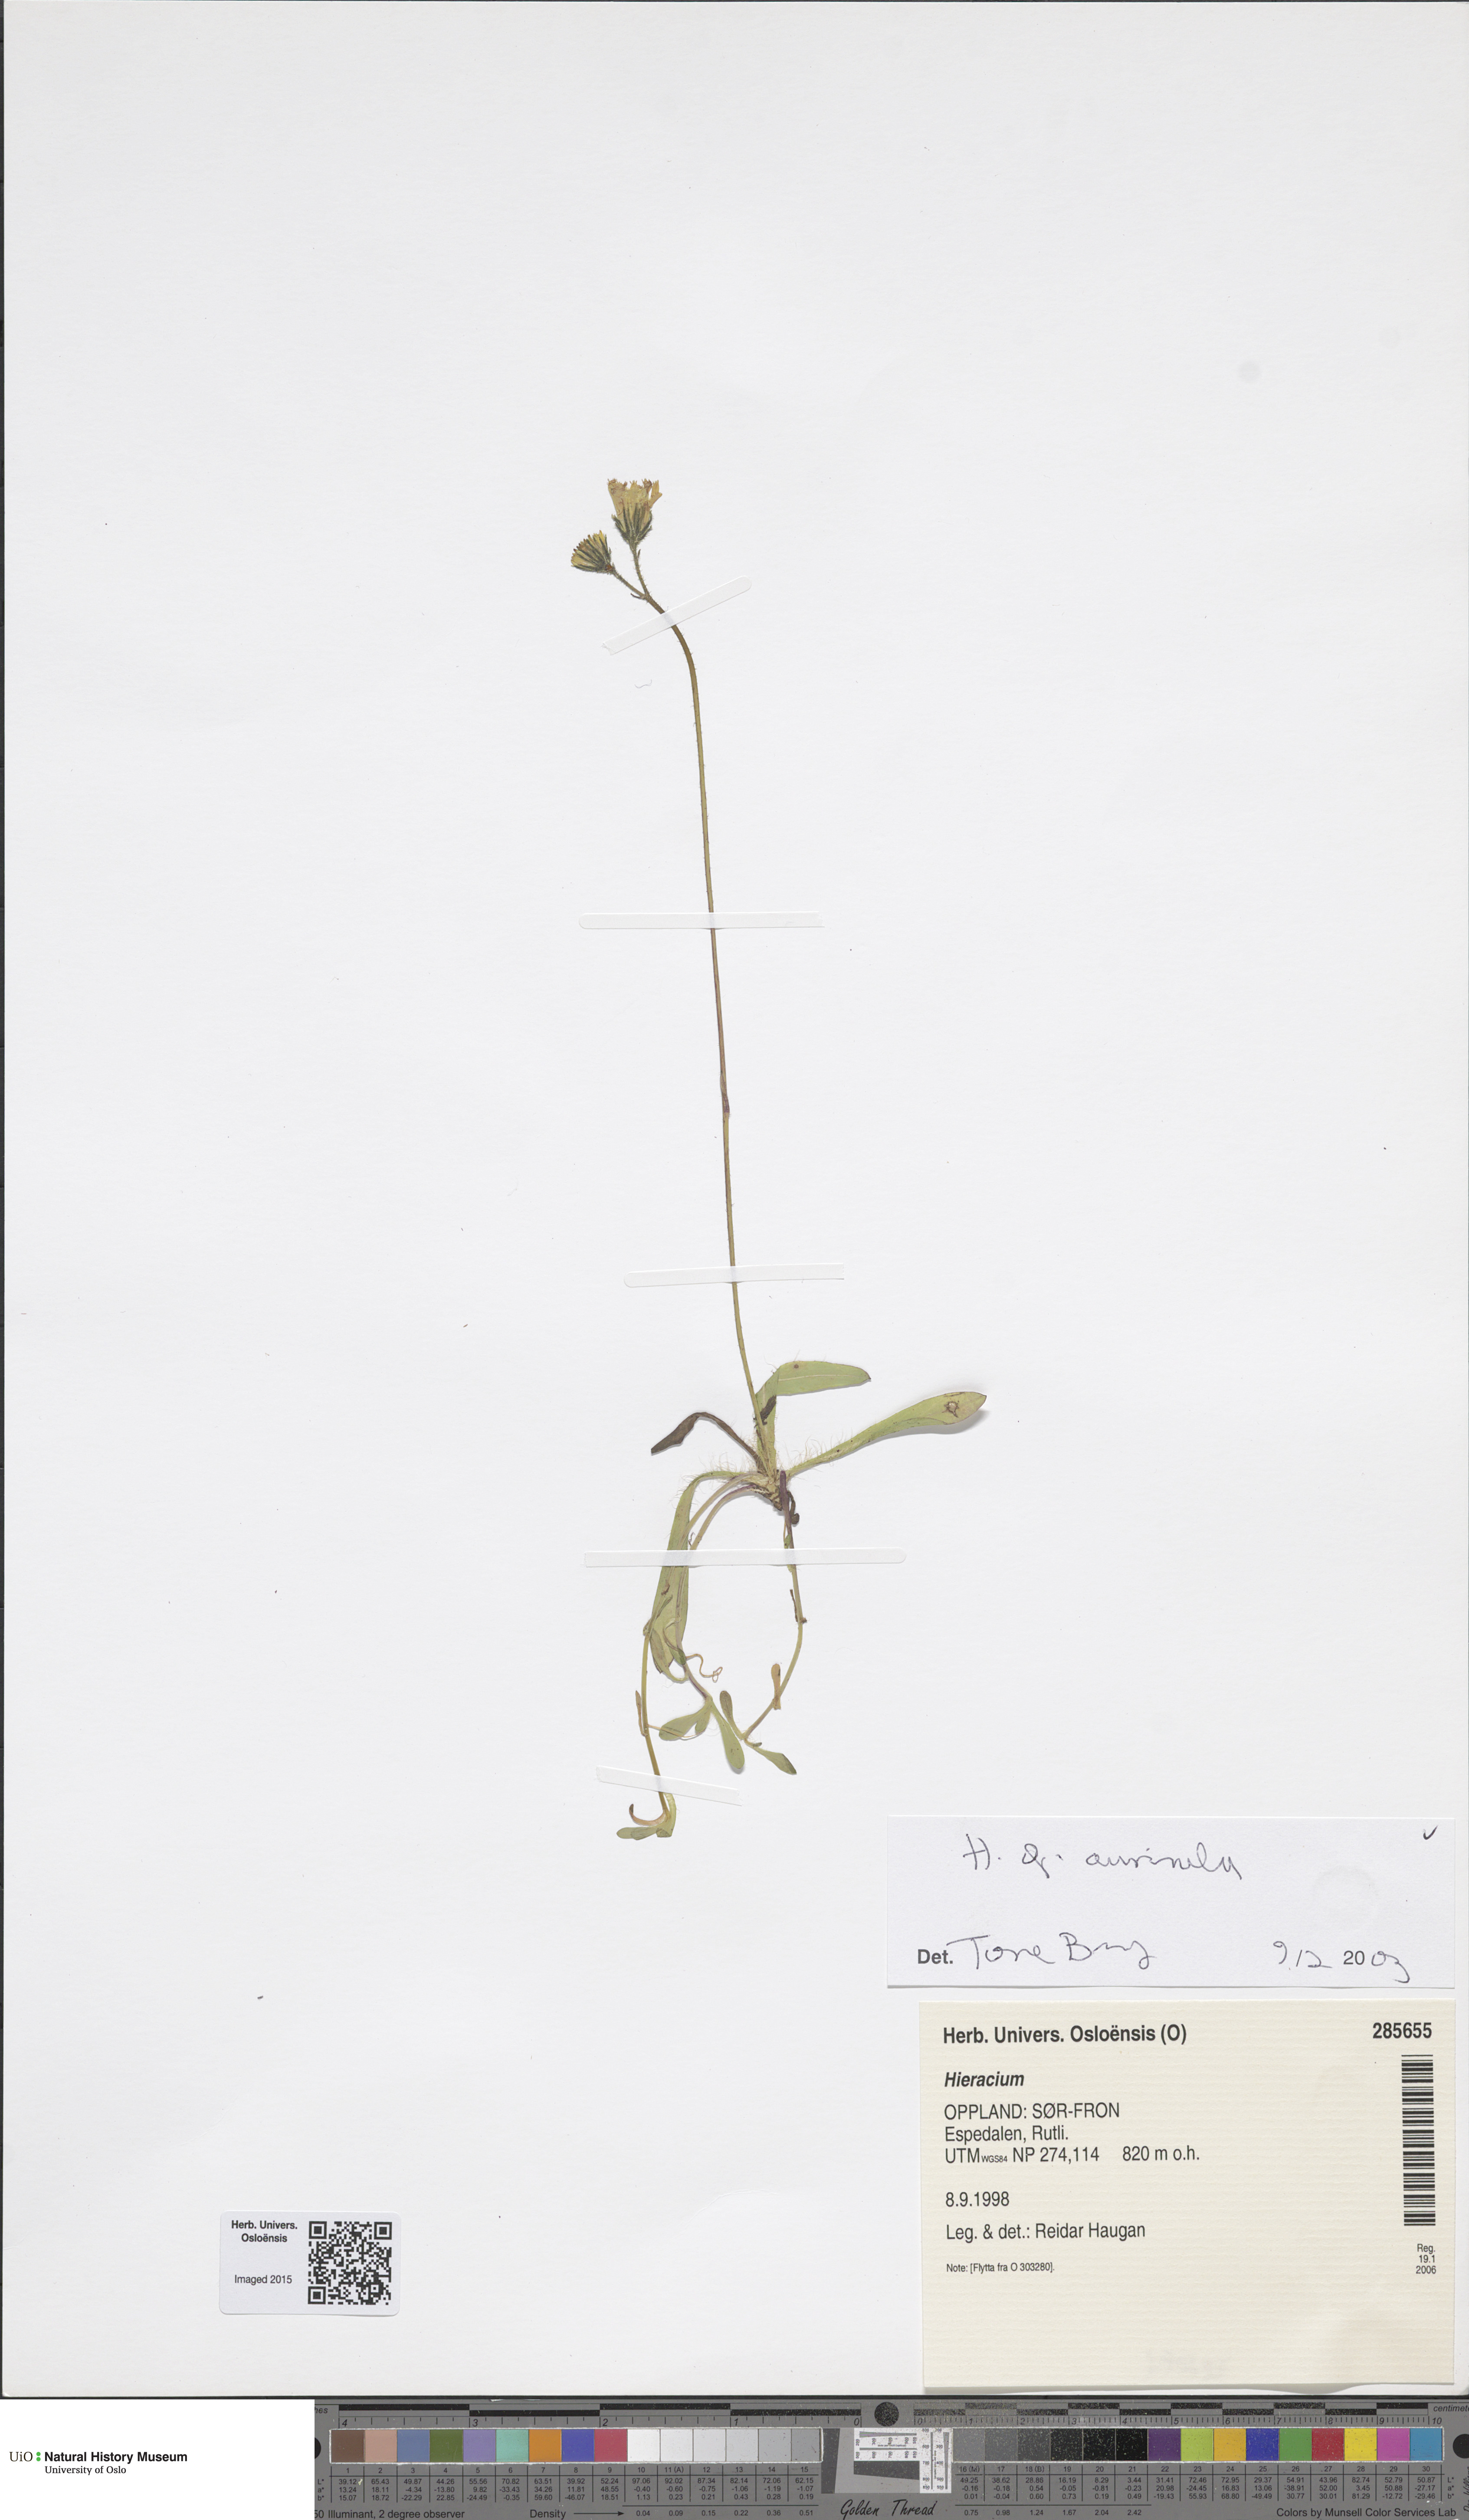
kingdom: Plantae
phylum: Tracheophyta
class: Magnoliopsida
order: Asterales
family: Asteraceae
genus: Pilosella
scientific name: Pilosella lactucella
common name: Glaucous fox-and-cubs
